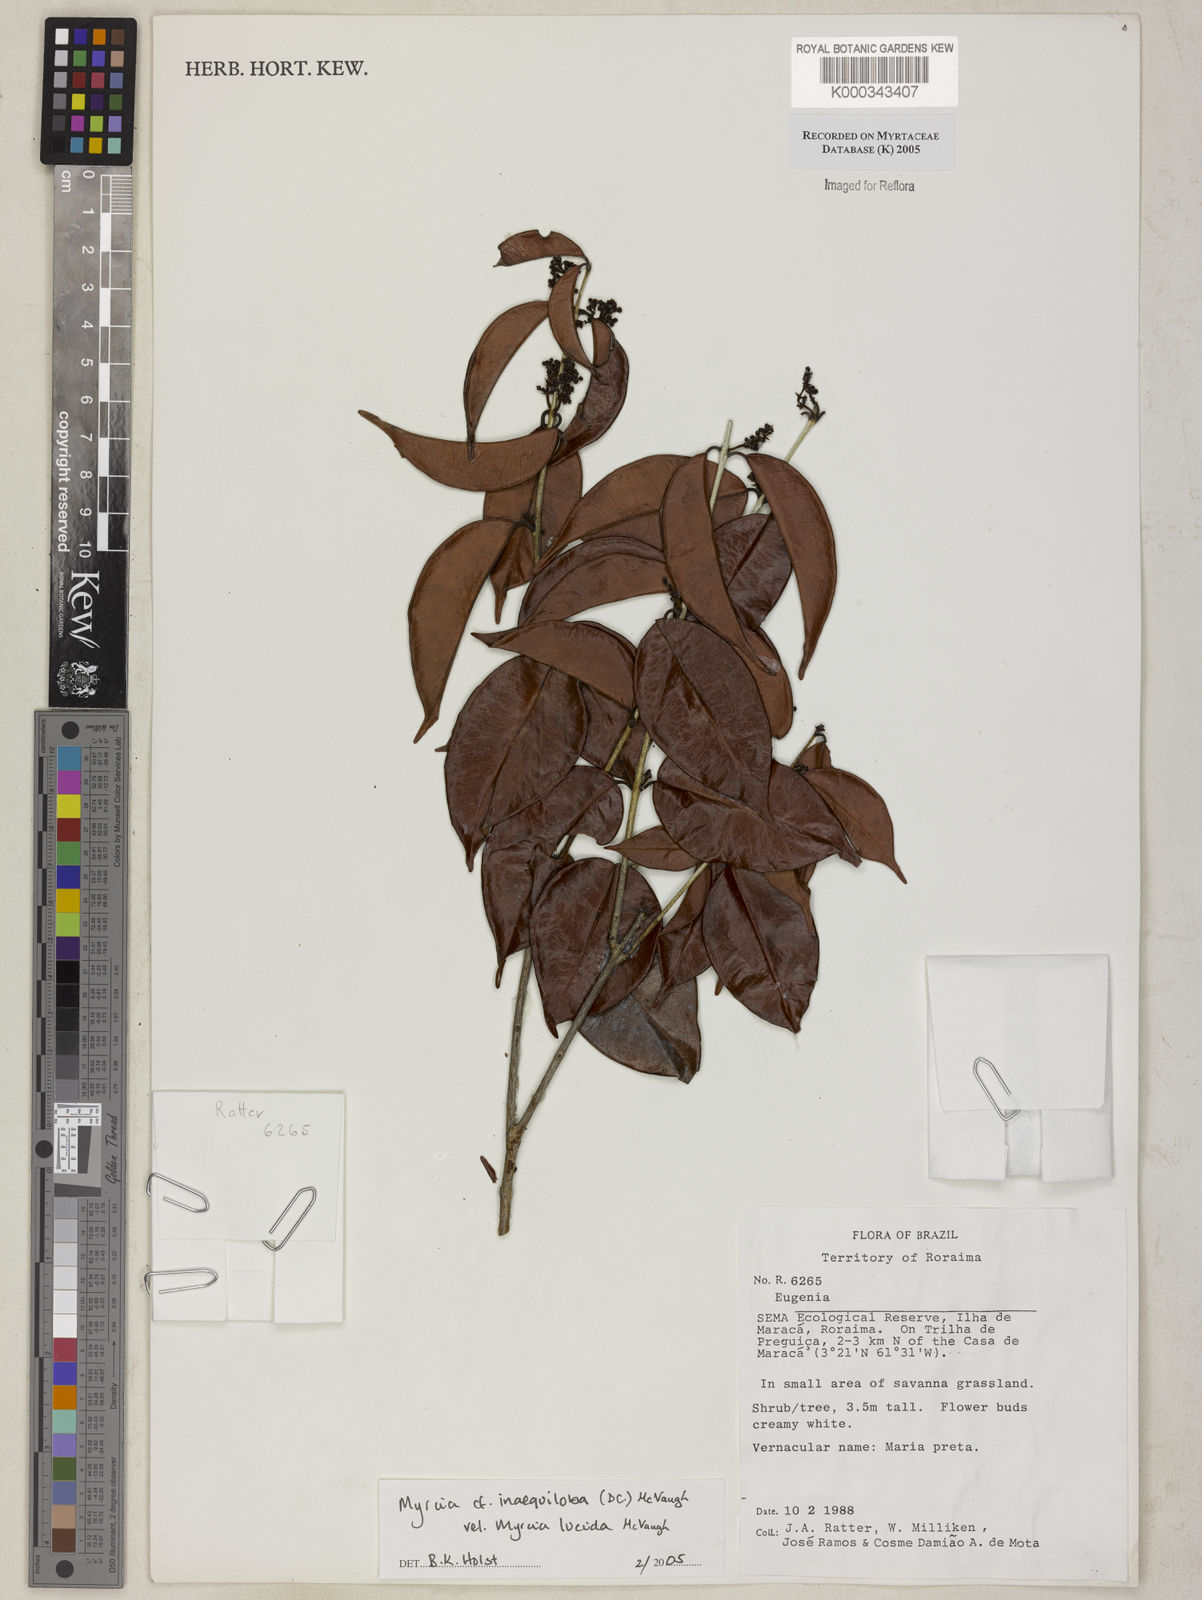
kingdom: Plantae
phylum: Tracheophyta
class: Magnoliopsida
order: Myrtales
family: Myrtaceae
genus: Myrcia
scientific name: Myrcia
